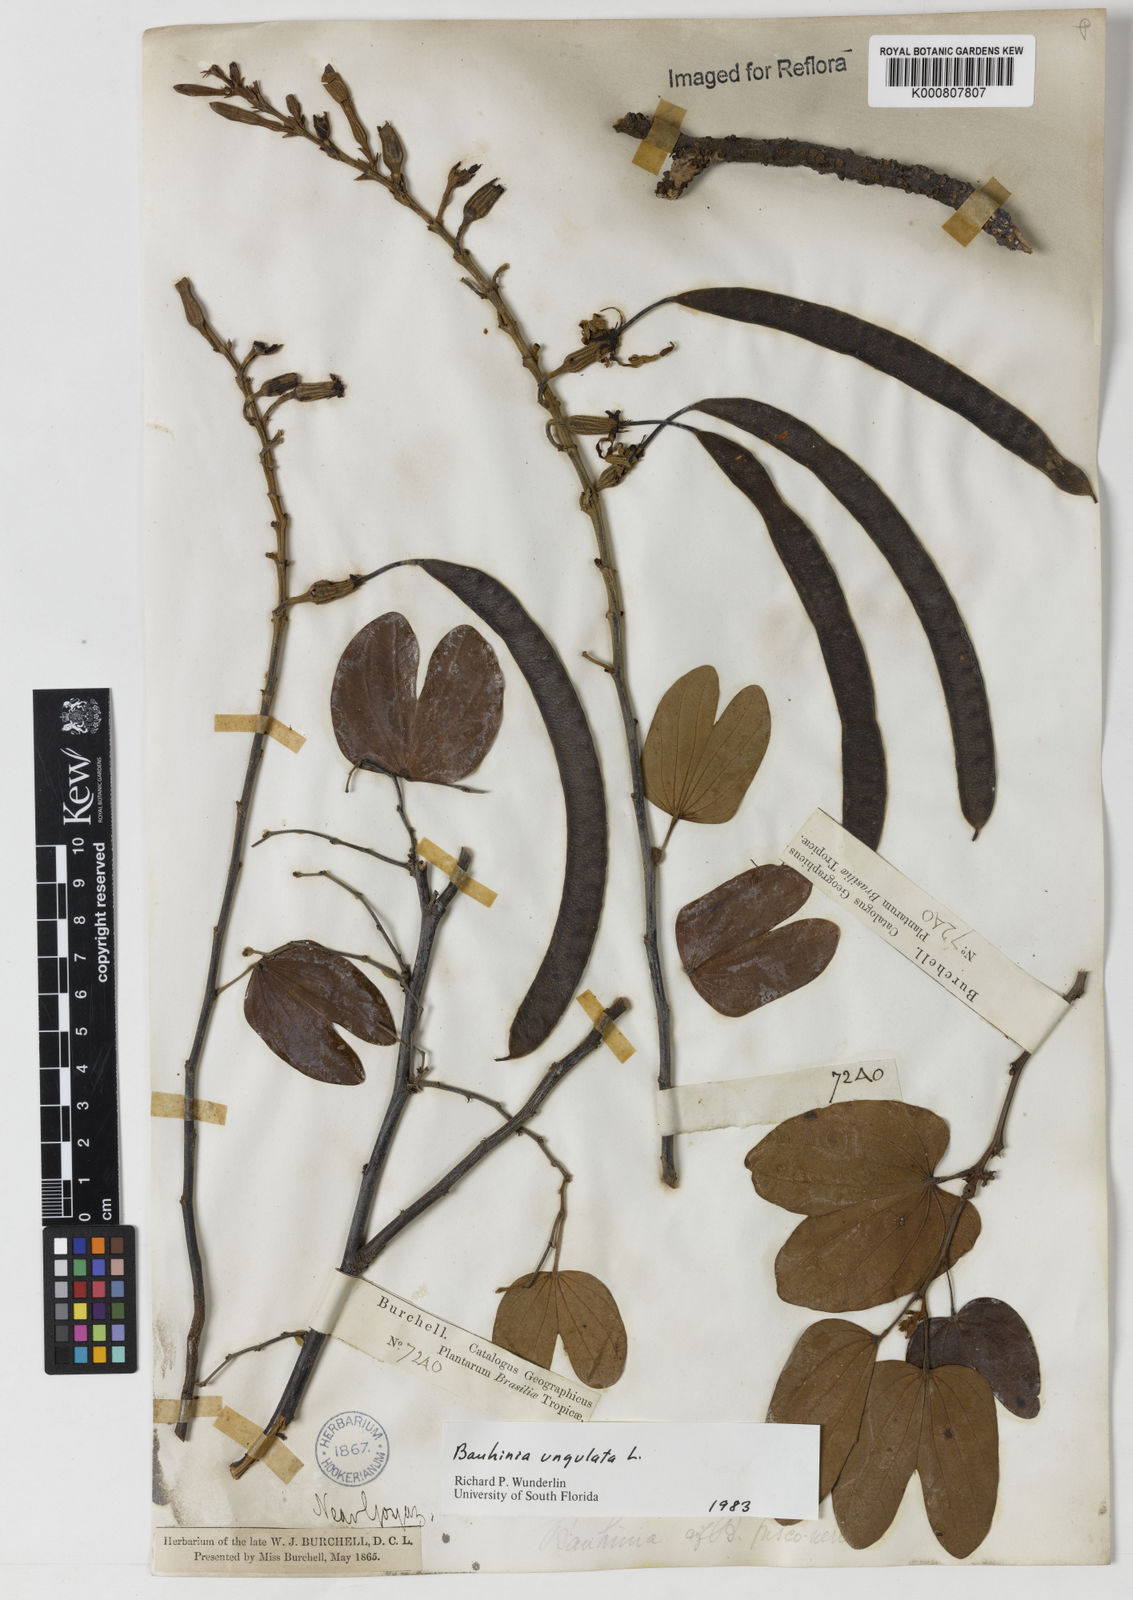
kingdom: Plantae
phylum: Tracheophyta
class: Magnoliopsida
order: Fabales
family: Fabaceae
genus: Bauhinia
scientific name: Bauhinia ungulata
